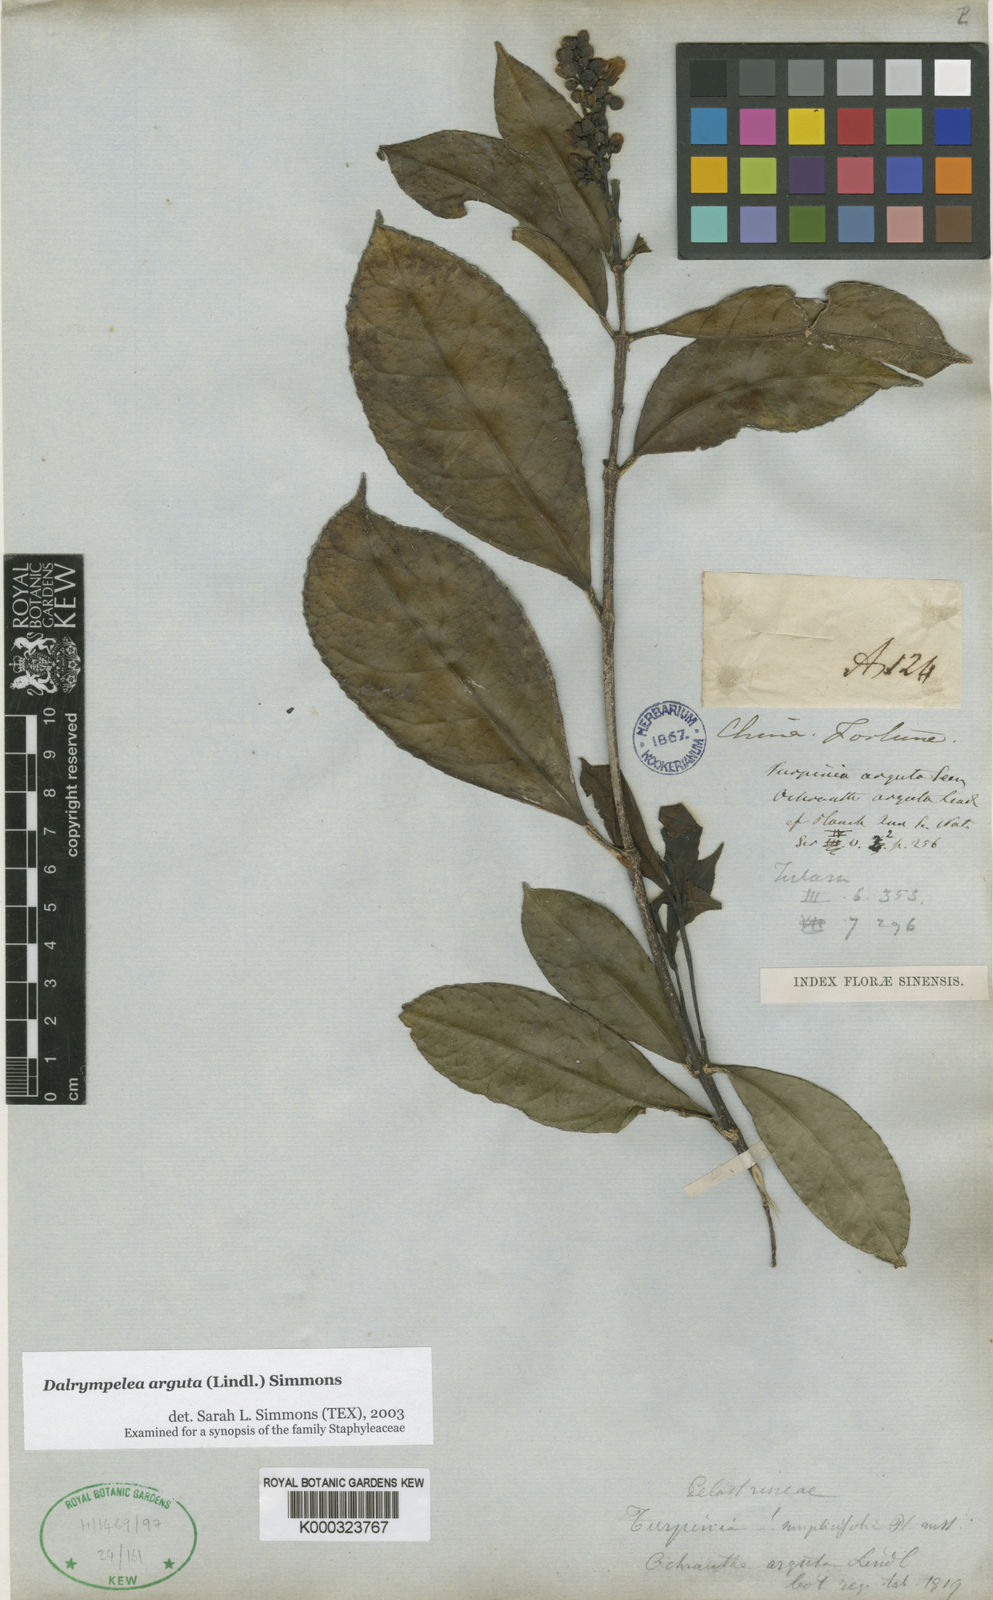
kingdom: Plantae
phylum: Tracheophyta
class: Magnoliopsida
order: Crossosomatales
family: Staphyleaceae
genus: Turpinia
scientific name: Turpinia arguta
